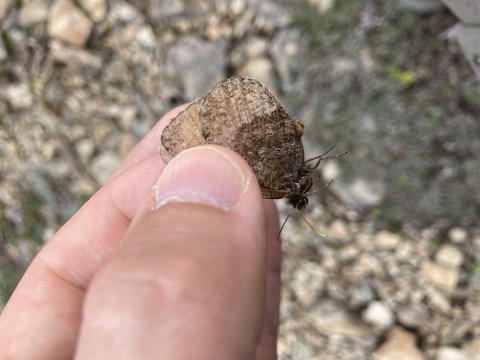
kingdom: Animalia
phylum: Arthropoda
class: Insecta
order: Lepidoptera
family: Nymphalidae
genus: Oeneis
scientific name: Oeneis bore
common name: Polixenes Arctic
